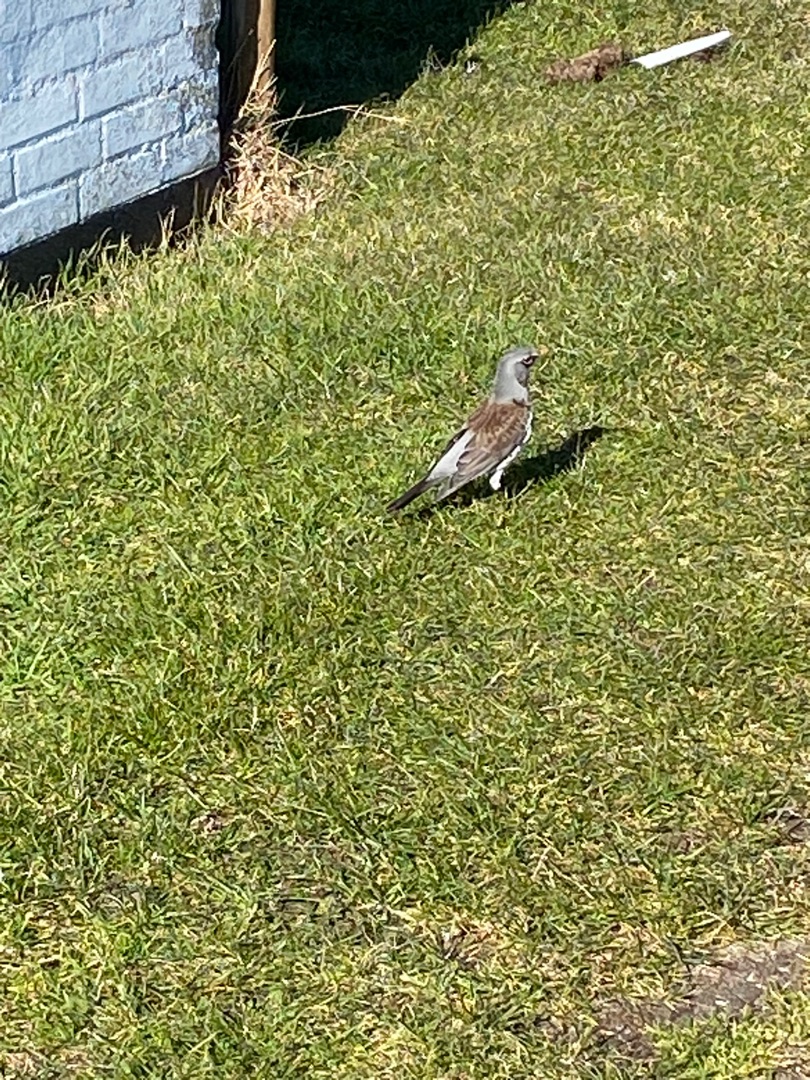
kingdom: Animalia
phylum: Chordata
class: Aves
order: Passeriformes
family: Turdidae
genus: Turdus
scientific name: Turdus pilaris
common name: Sjagger
